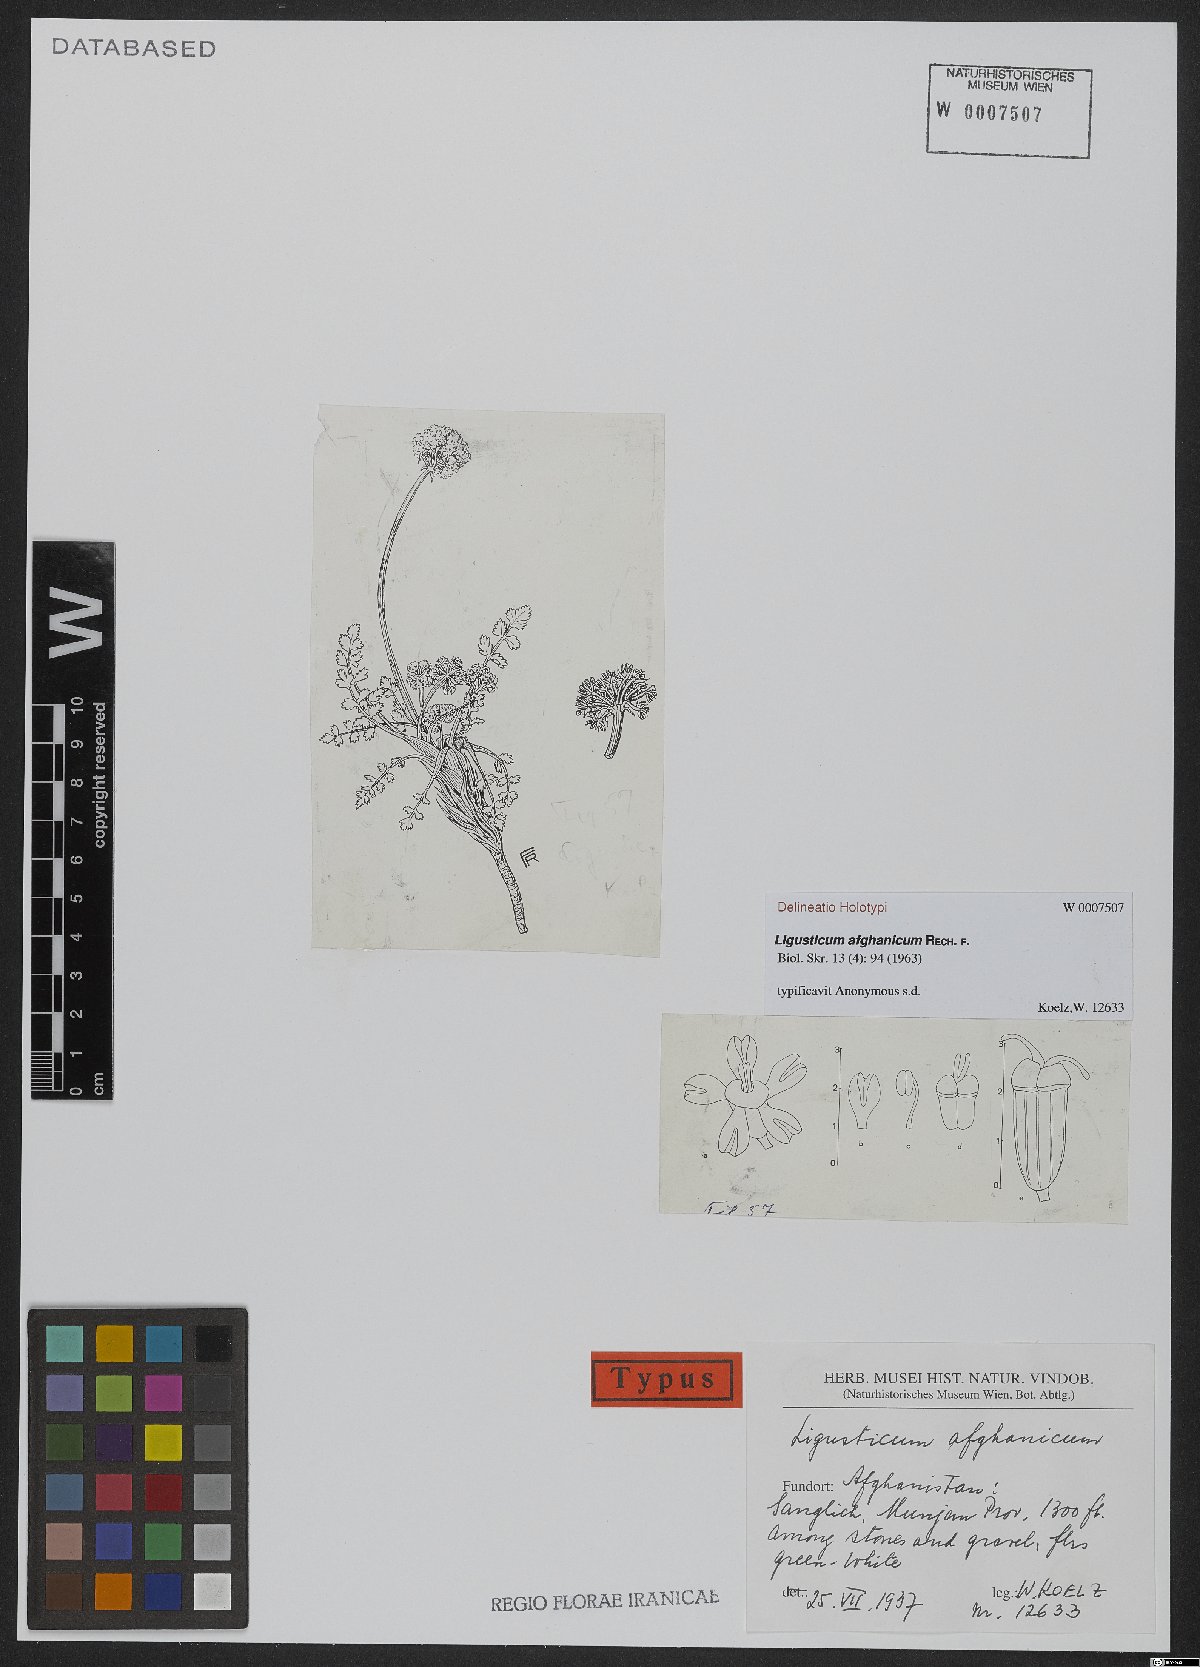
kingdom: Plantae
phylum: Tracheophyta
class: Magnoliopsida
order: Apiales
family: Apiaceae
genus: Ligusticum
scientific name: Ligusticum afghanicum
